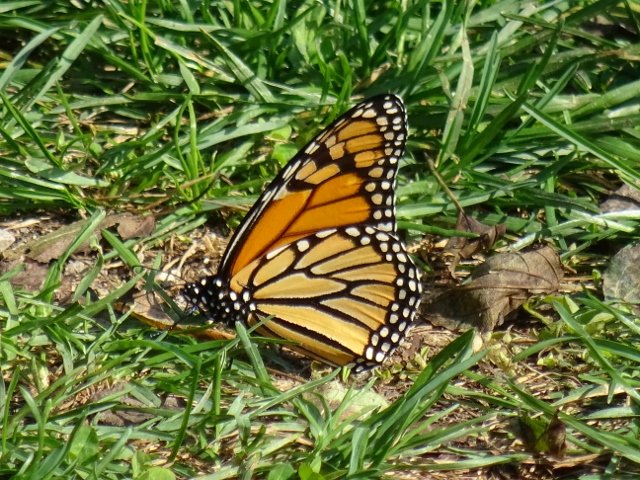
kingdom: Animalia
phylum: Arthropoda
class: Insecta
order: Lepidoptera
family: Nymphalidae
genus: Danaus
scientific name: Danaus plexippus
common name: Monarch
